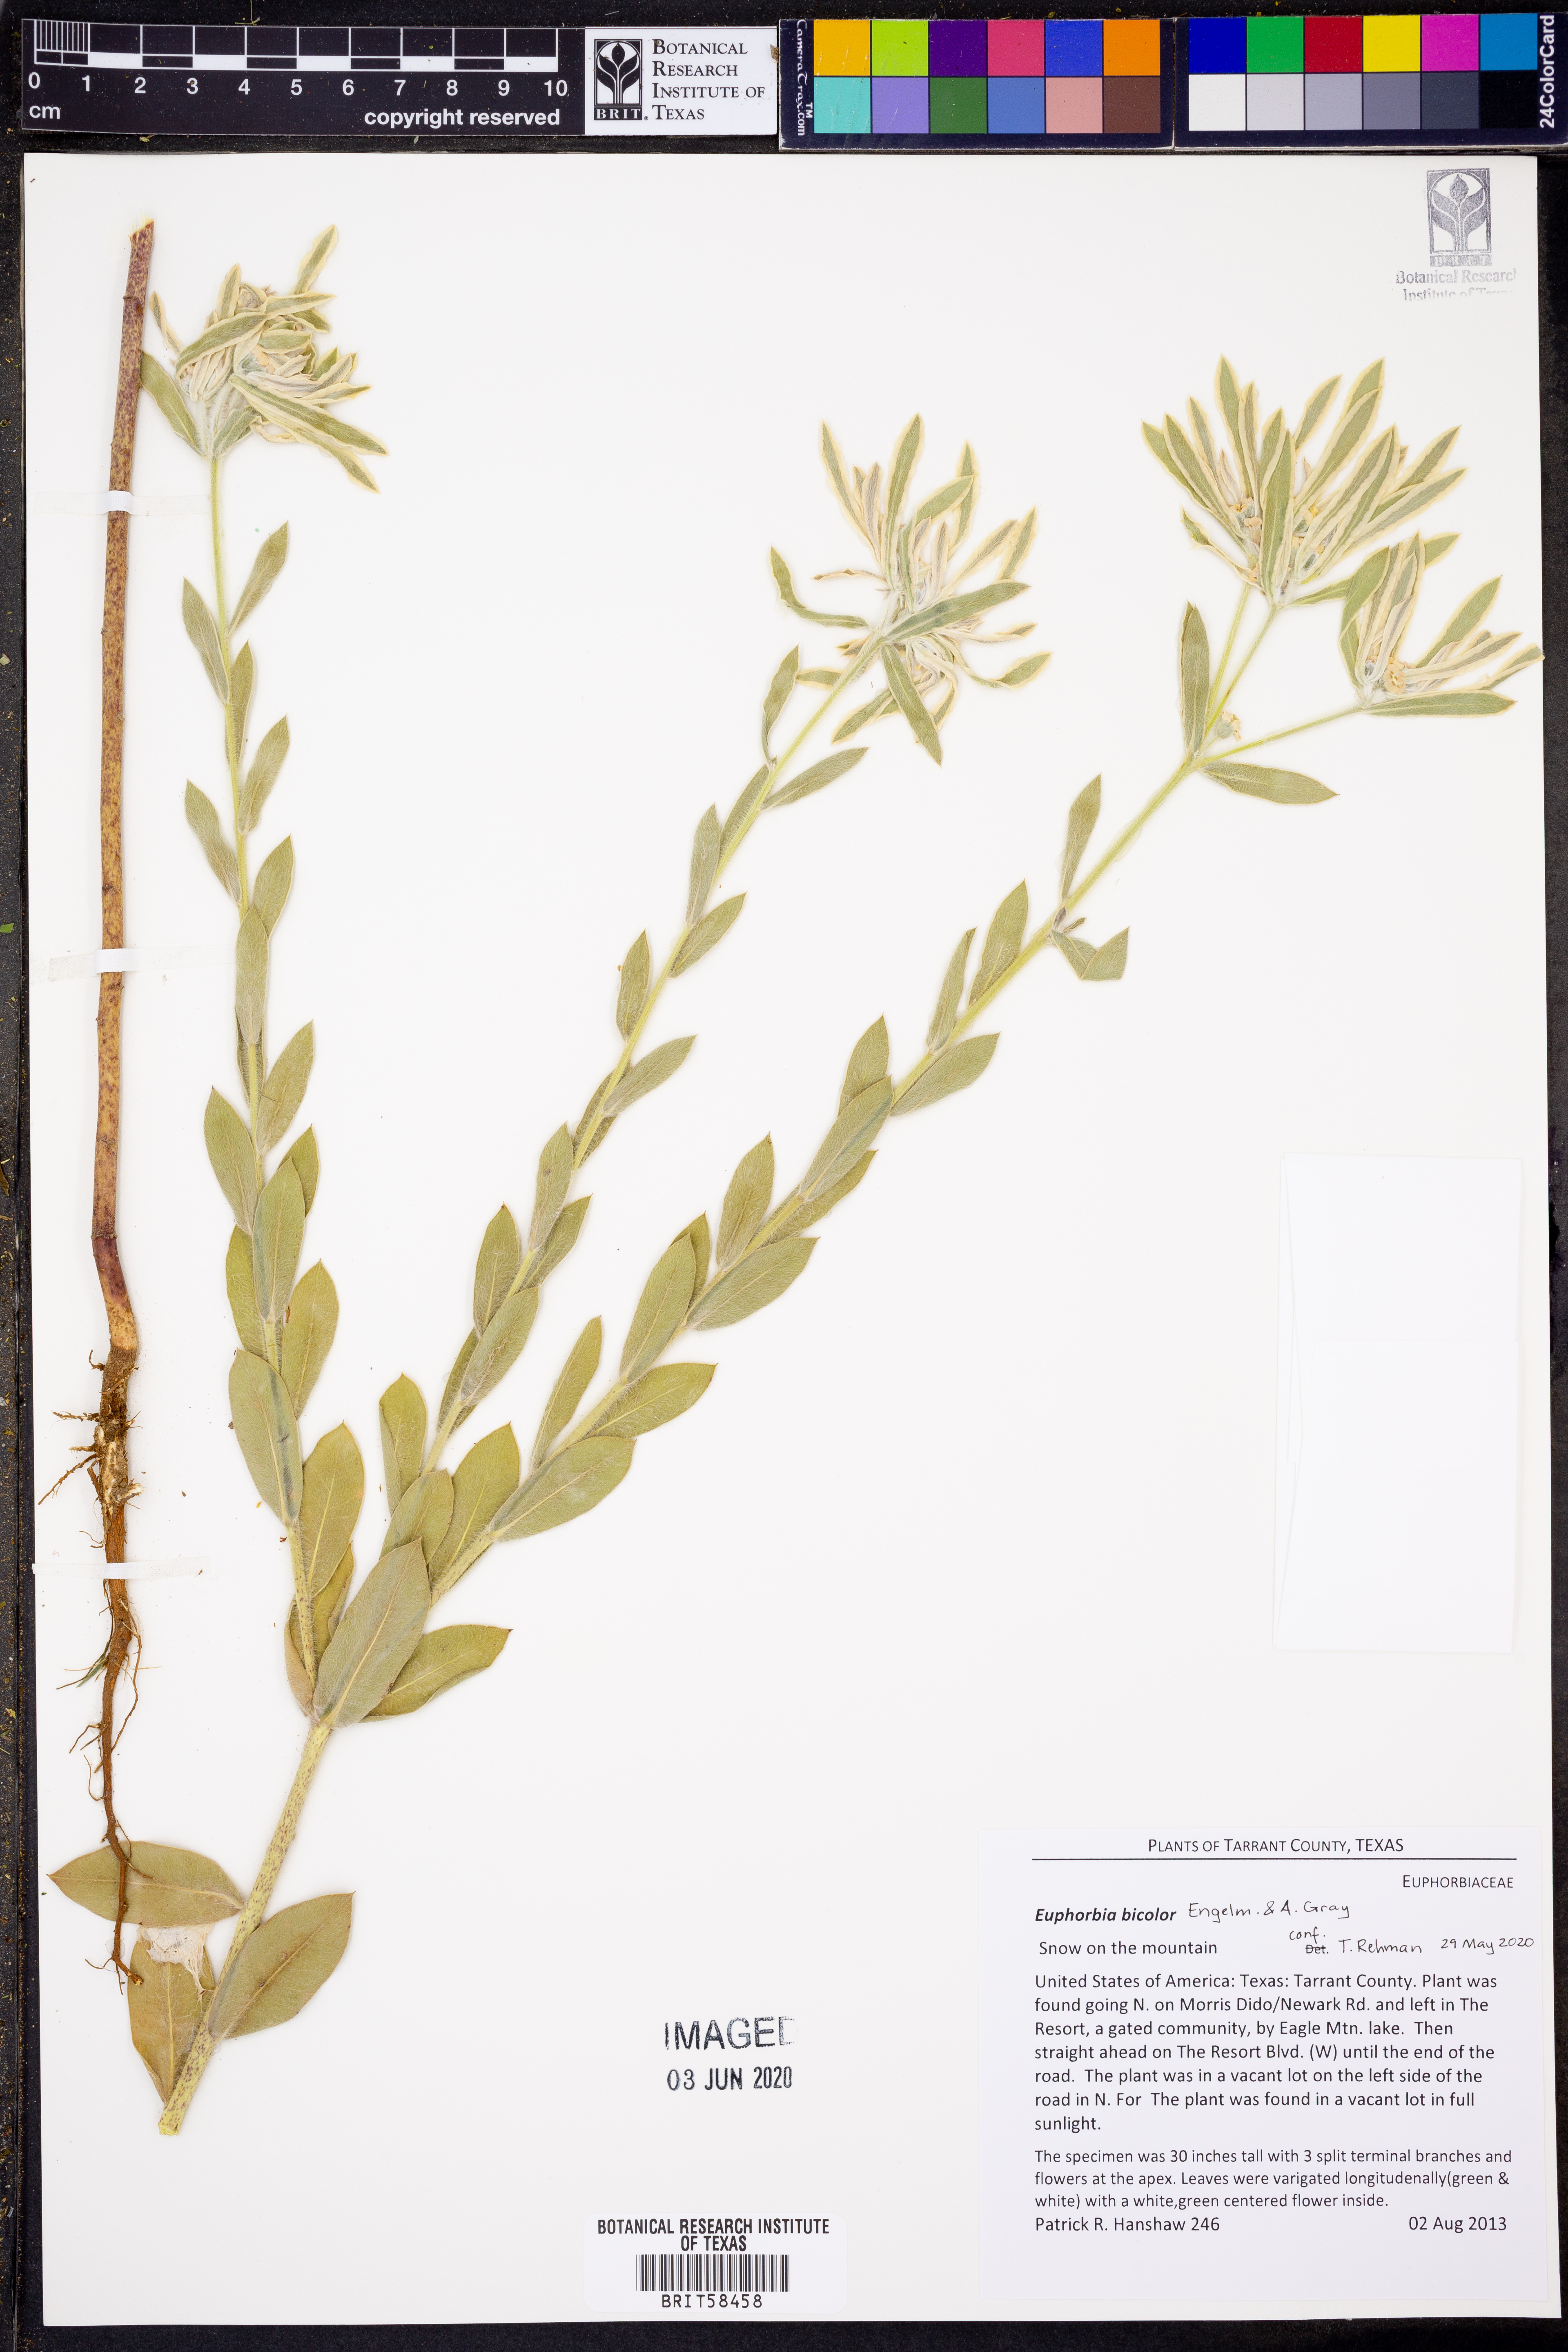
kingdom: Plantae
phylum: Tracheophyta
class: Magnoliopsida
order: Malpighiales
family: Euphorbiaceae
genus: Euphorbia
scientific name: Euphorbia bicolor
